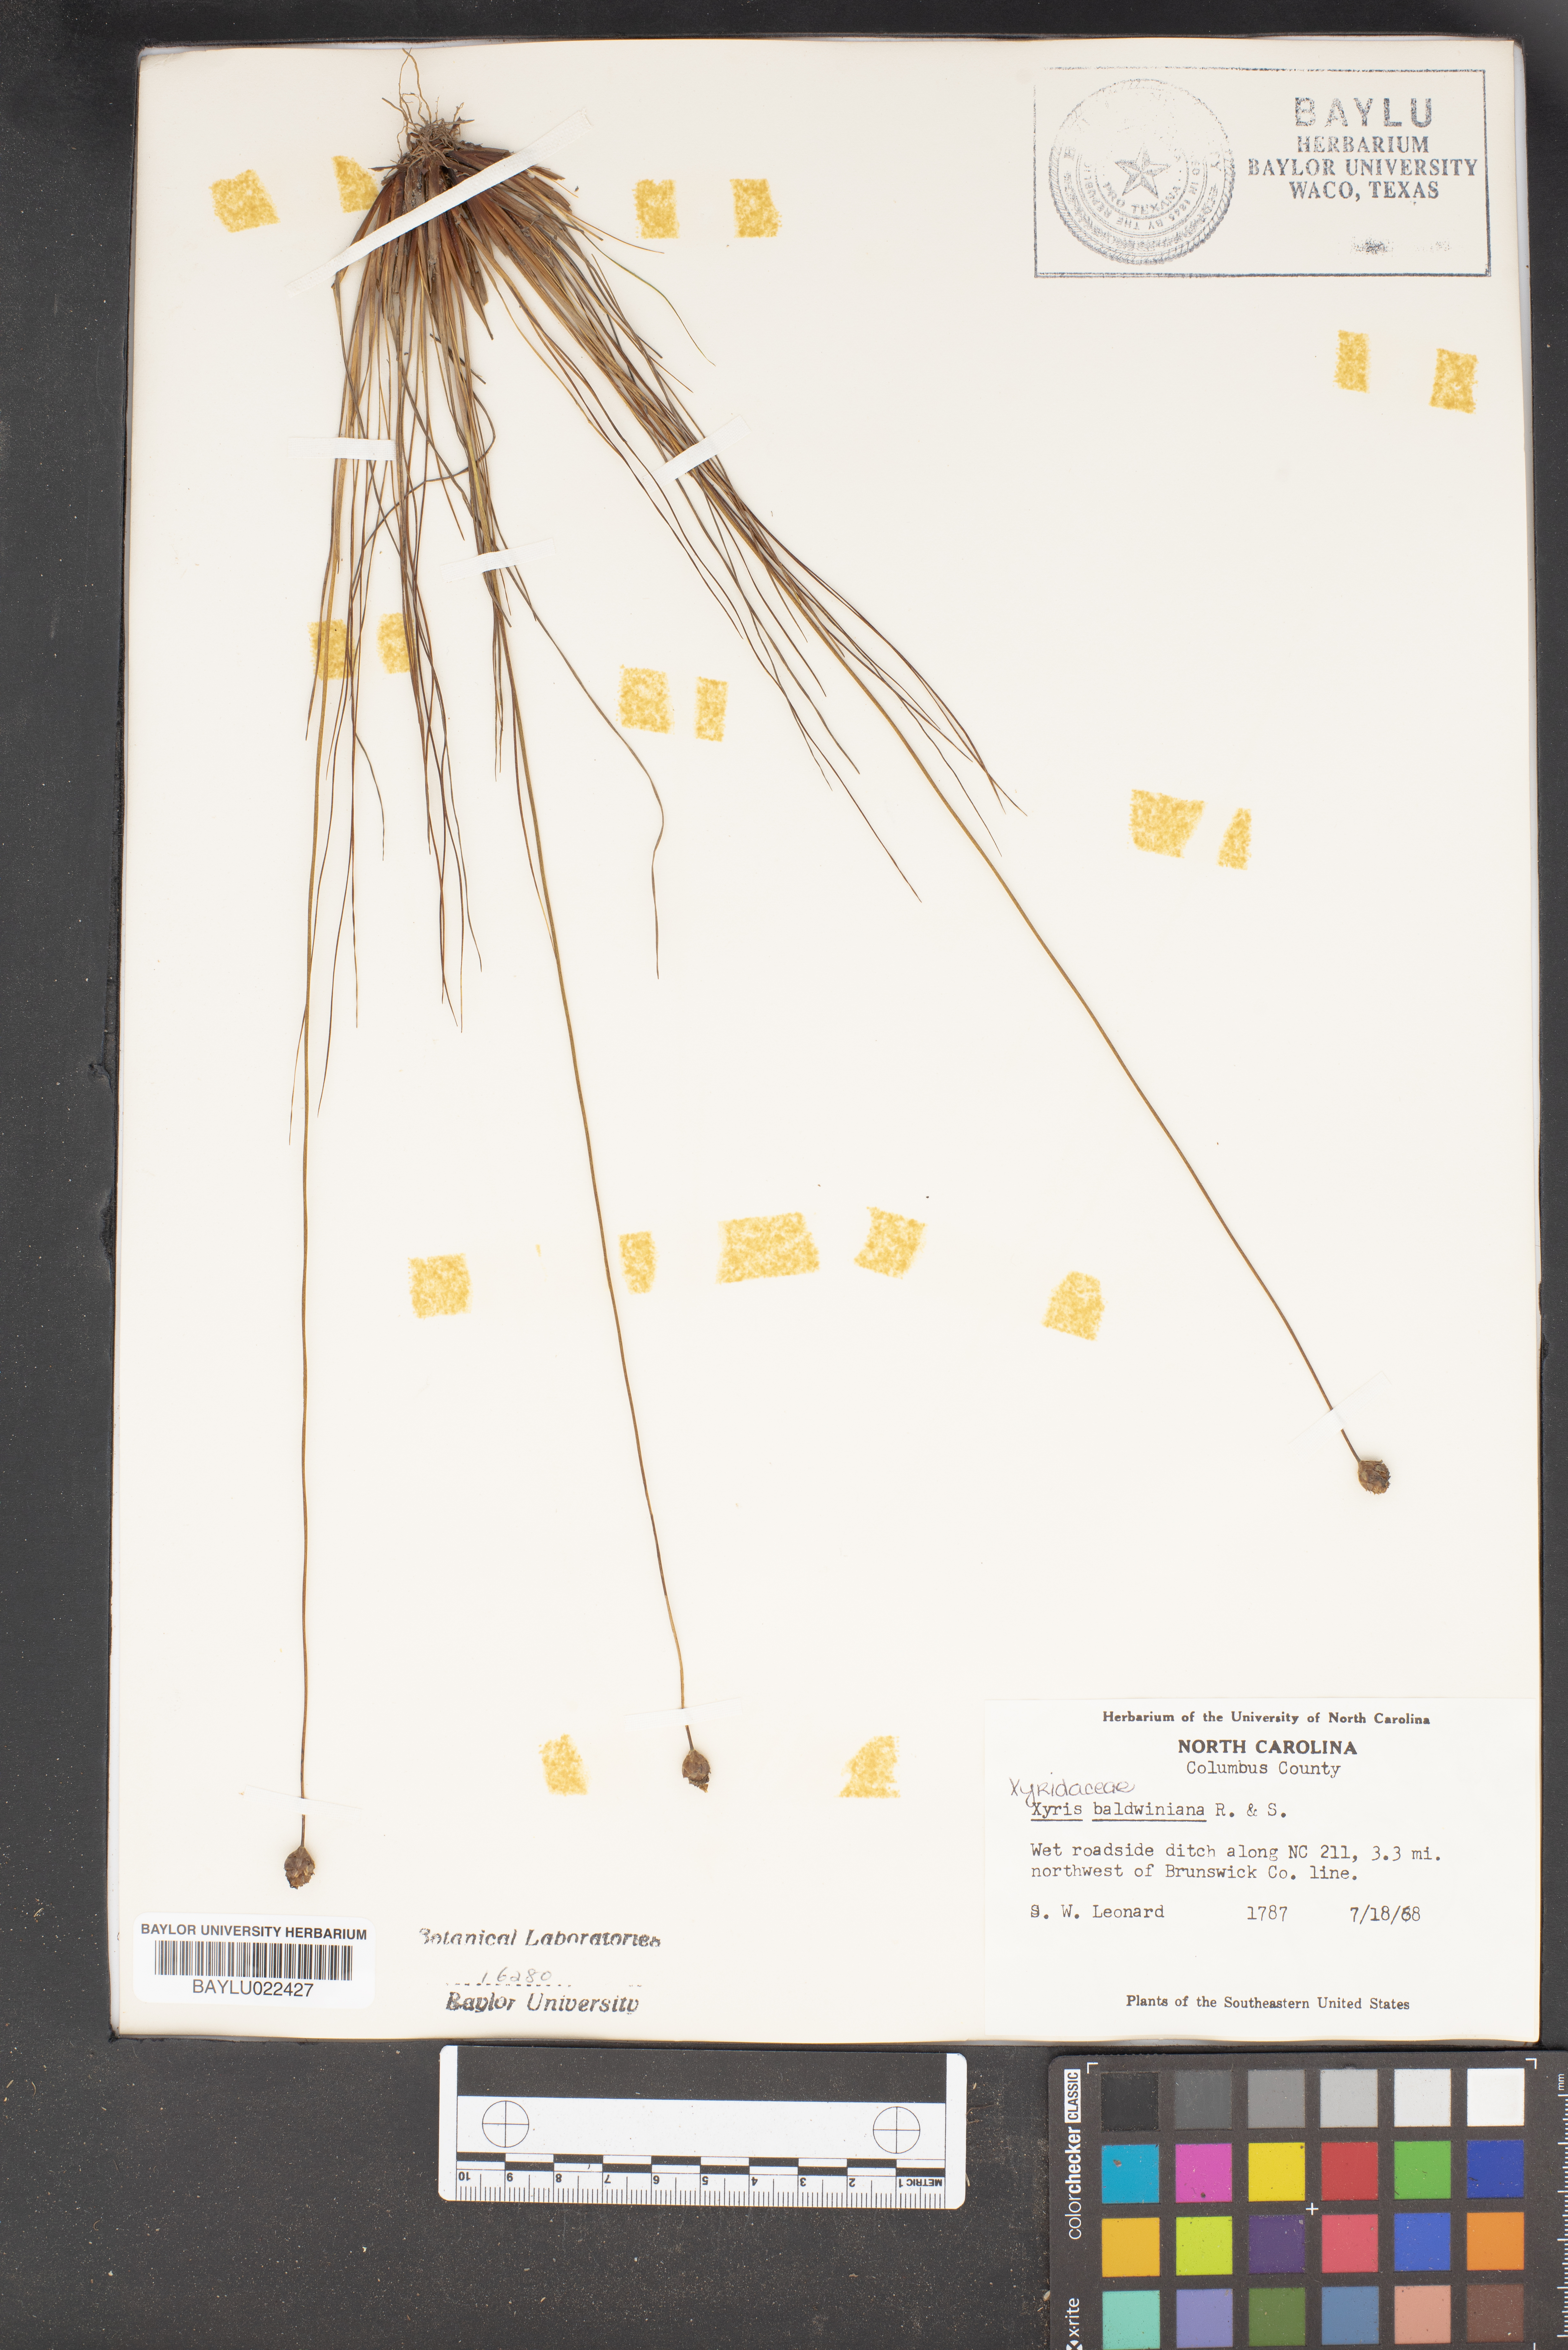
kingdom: Plantae
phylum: Tracheophyta
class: Liliopsida
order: Poales
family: Xyridaceae
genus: Xyris
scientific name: Xyris baldwiniana
